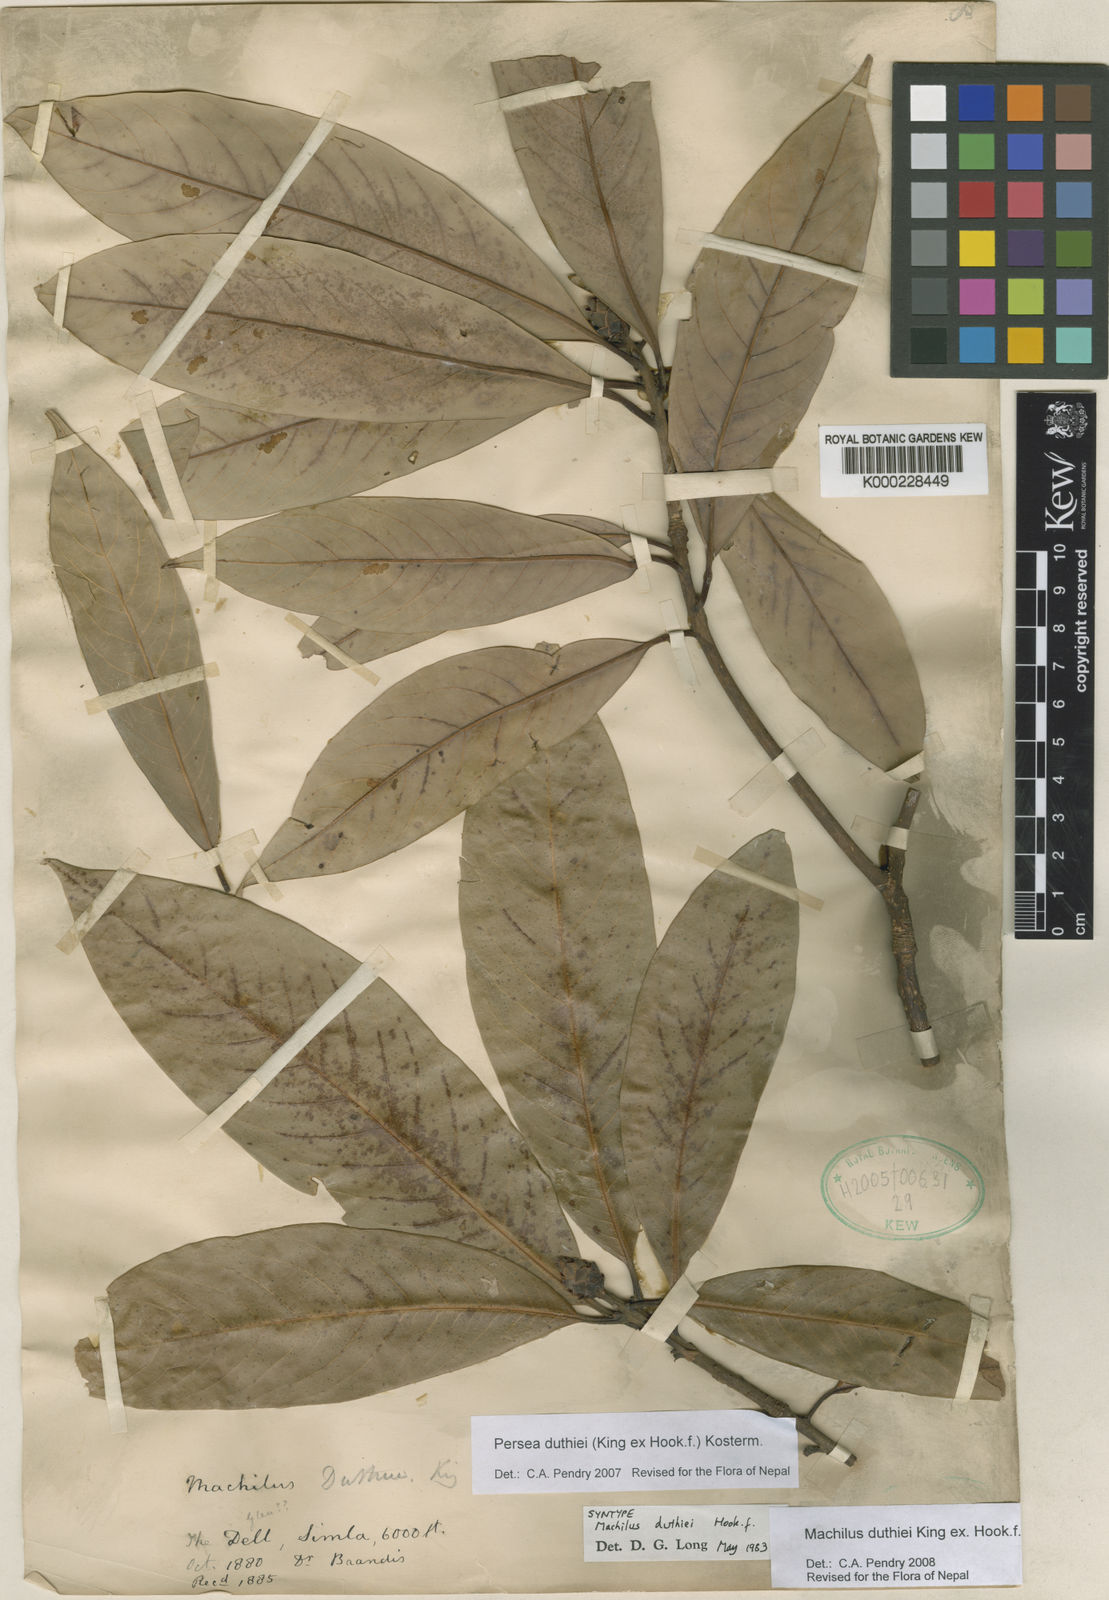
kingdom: Plantae
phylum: Tracheophyta
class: Magnoliopsida
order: Laurales
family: Lauraceae
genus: Machilus
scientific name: Machilus duthiei
